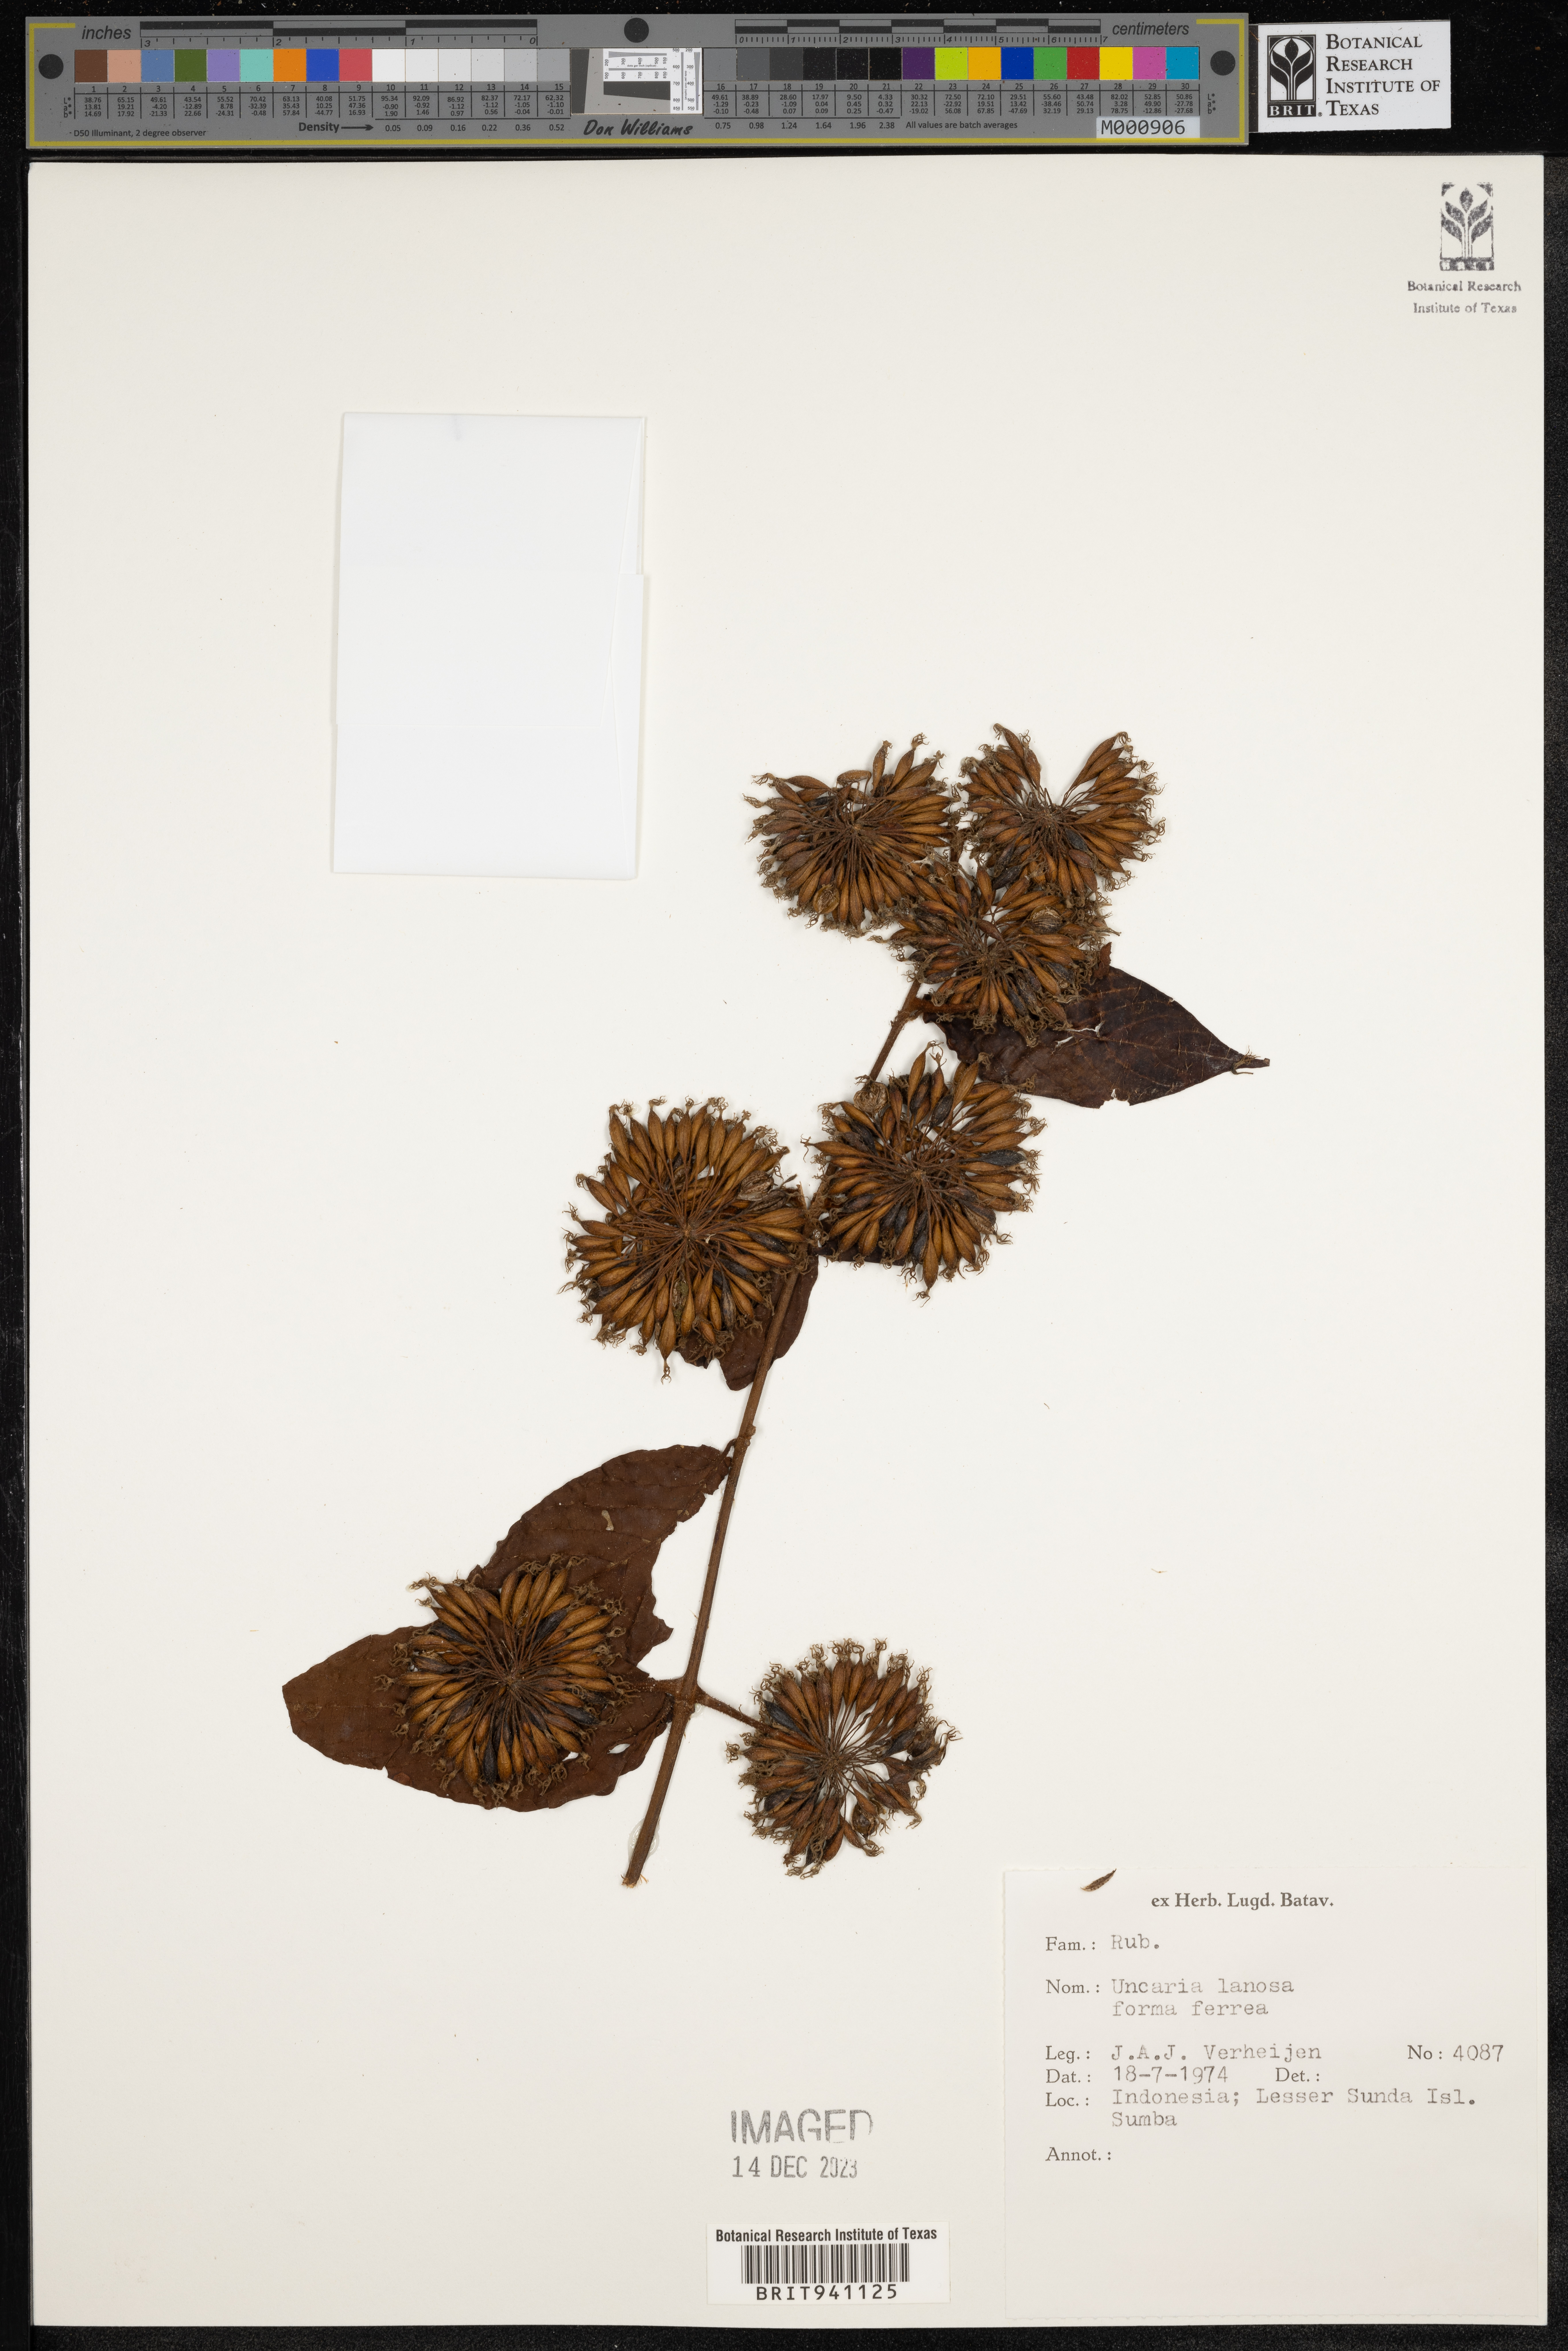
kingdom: Plantae
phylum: Tracheophyta
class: Magnoliopsida
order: Gentianales
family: Rubiaceae
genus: Uncaria
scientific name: Uncaria
